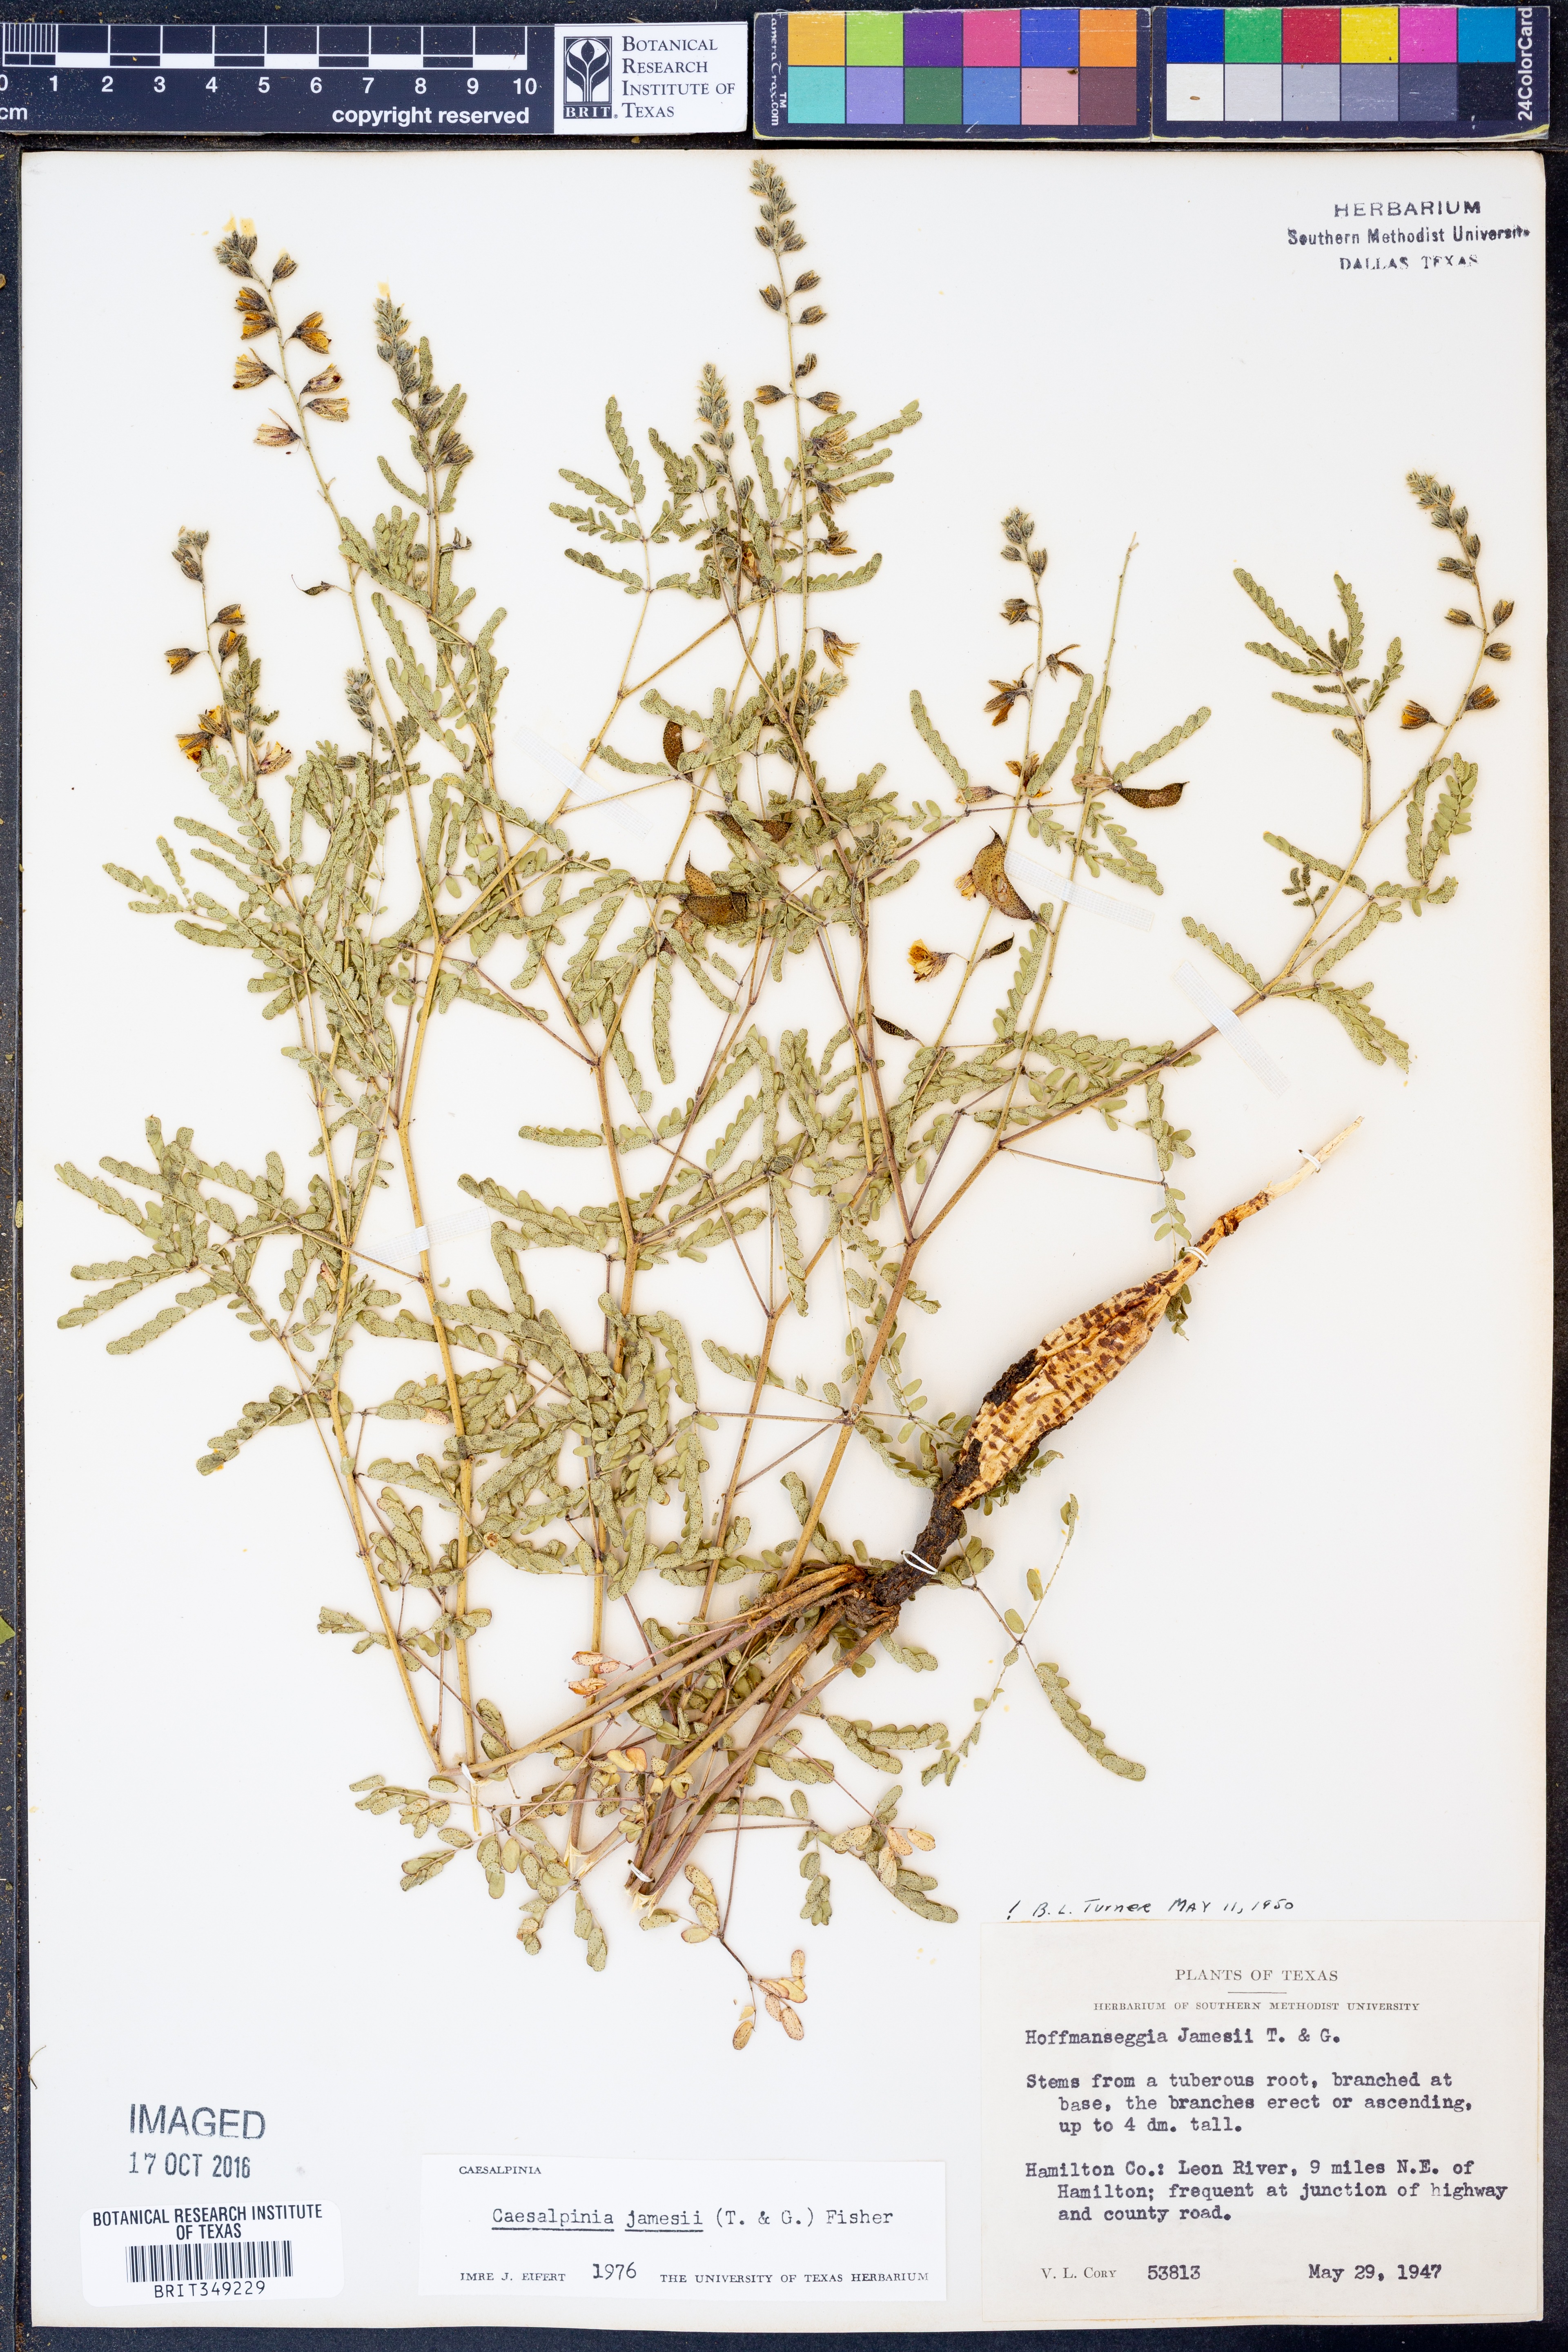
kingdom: Plantae
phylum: Tracheophyta
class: Magnoliopsida
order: Fabales
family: Fabaceae
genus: Pomaria
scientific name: Pomaria jamesii
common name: James' caesalpinia
